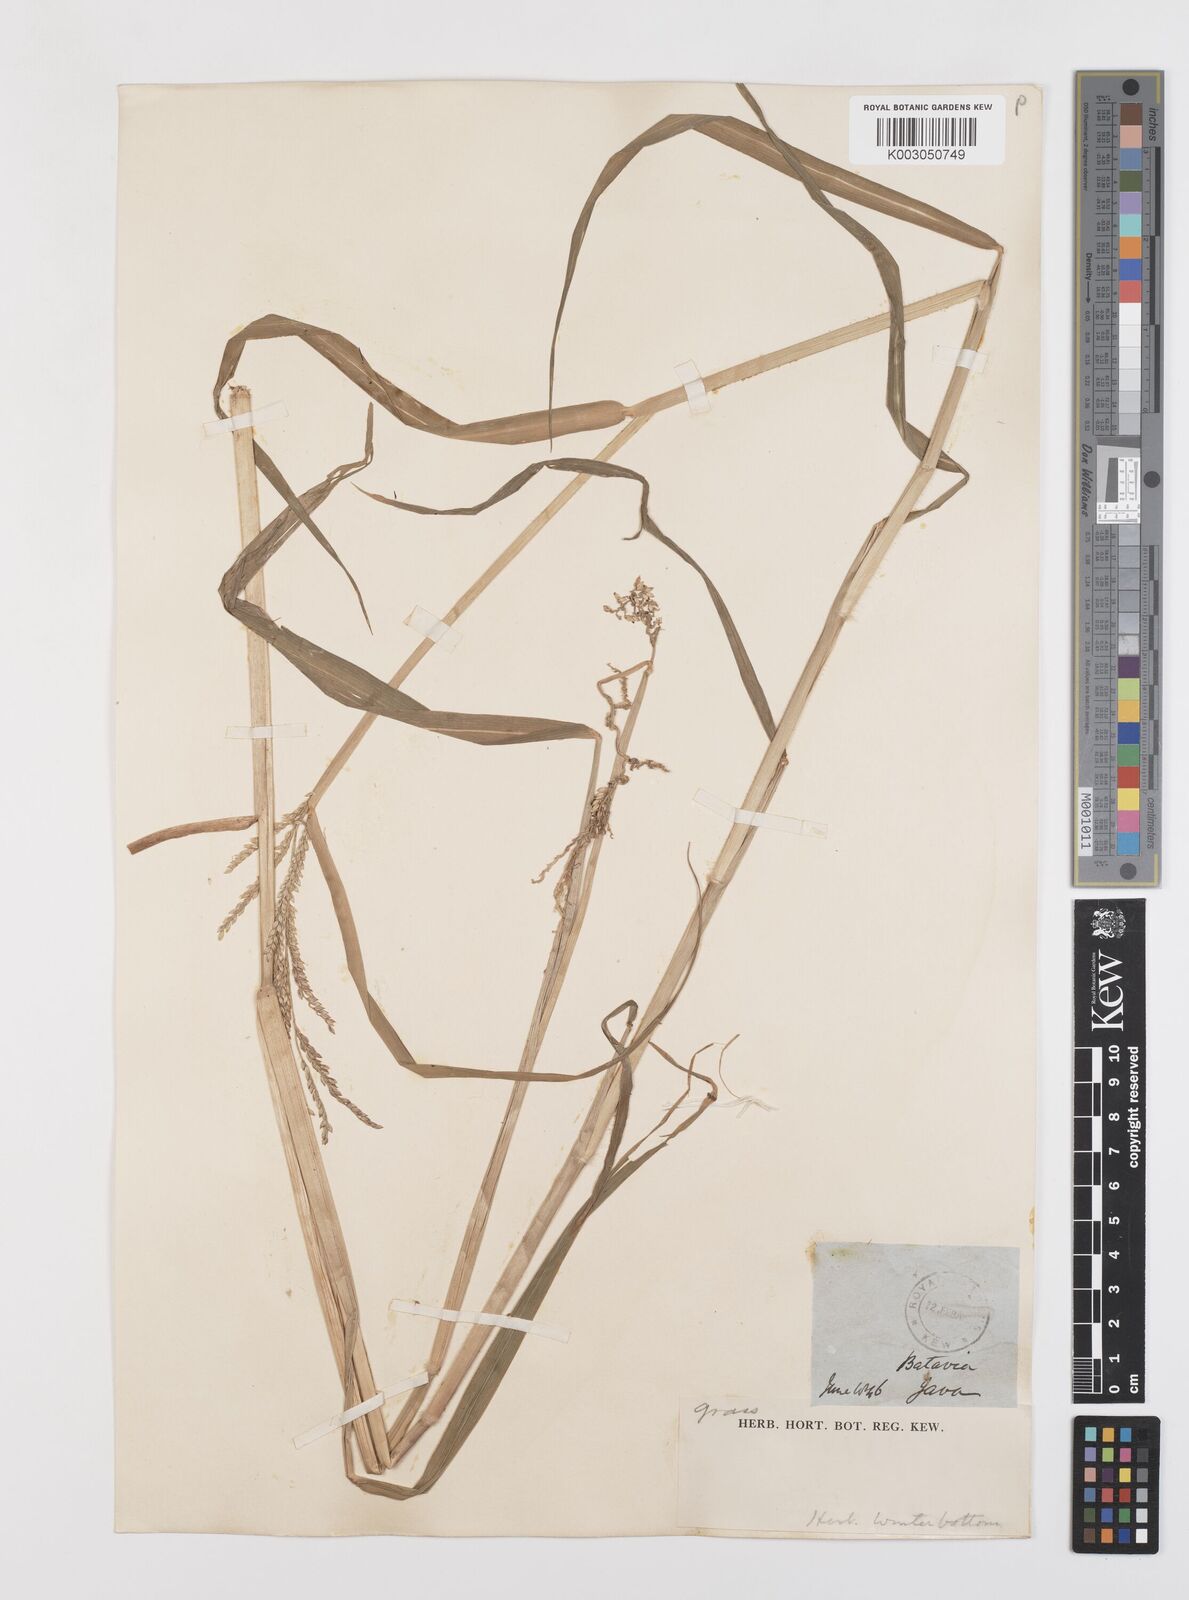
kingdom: Plantae
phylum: Tracheophyta
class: Liliopsida
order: Poales
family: Poaceae
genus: Urochloa
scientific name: Urochloa mutica
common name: Para grass
